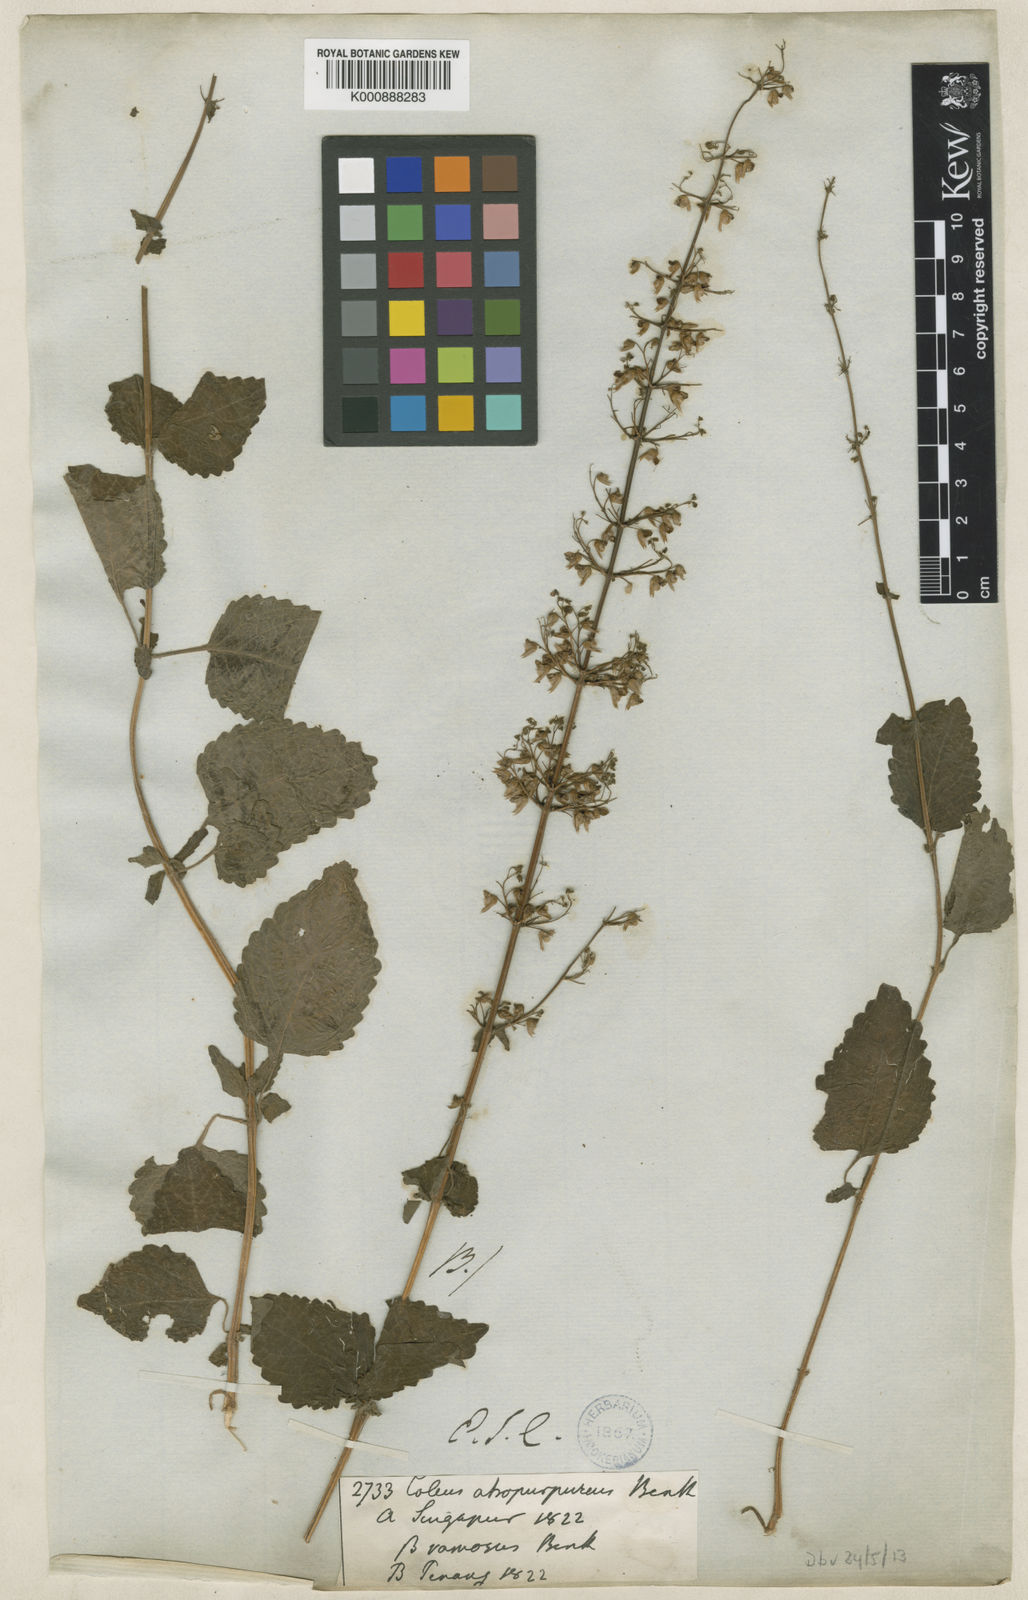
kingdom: Plantae
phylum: Tracheophyta
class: Magnoliopsida
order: Lamiales
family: Lamiaceae
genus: Plectranthus
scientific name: Plectranthus
